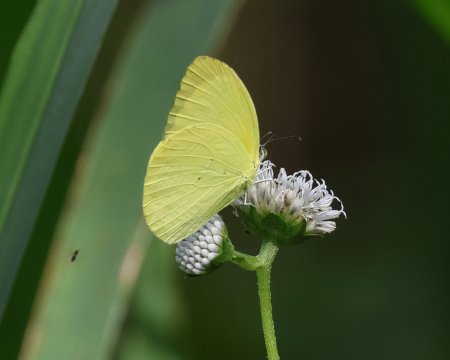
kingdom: Animalia
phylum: Arthropoda
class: Insecta
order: Lepidoptera
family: Pieridae
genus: Pyrisitia
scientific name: Pyrisitia dina
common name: Dina Yellow
